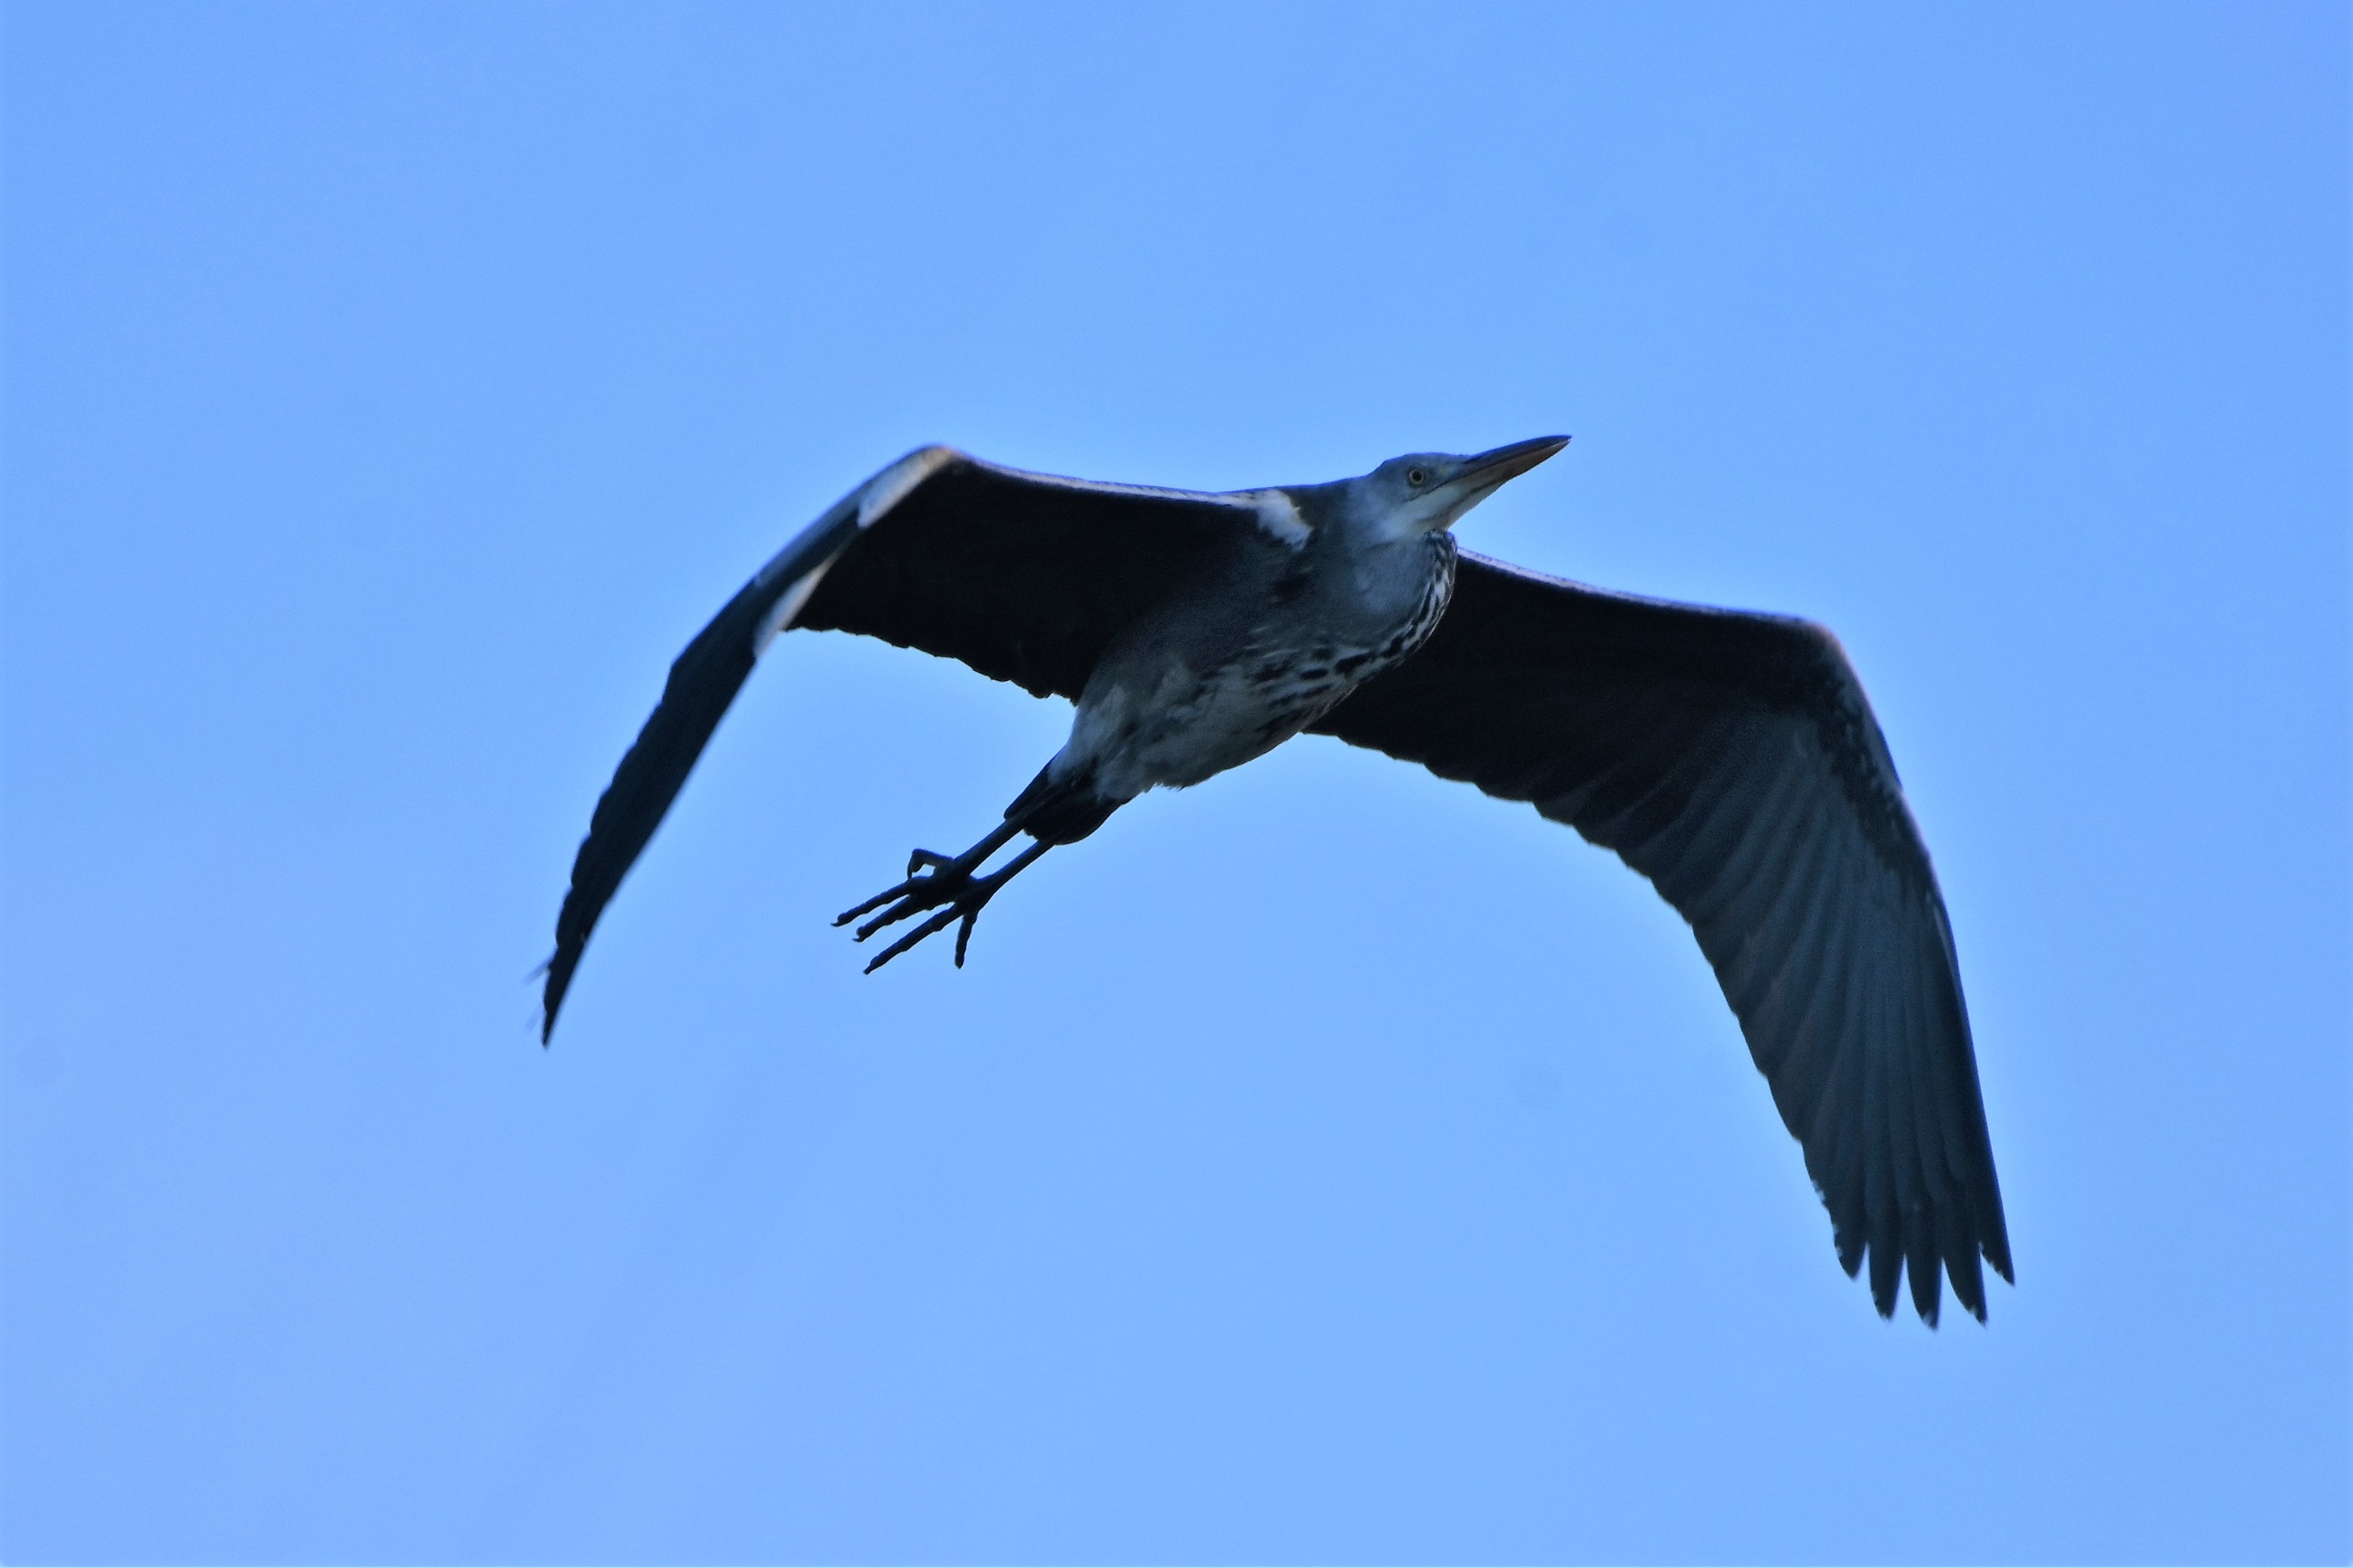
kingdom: Animalia
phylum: Chordata
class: Aves
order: Pelecaniformes
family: Ardeidae
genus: Ardea
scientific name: Ardea cinerea
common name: Fiskehejre
